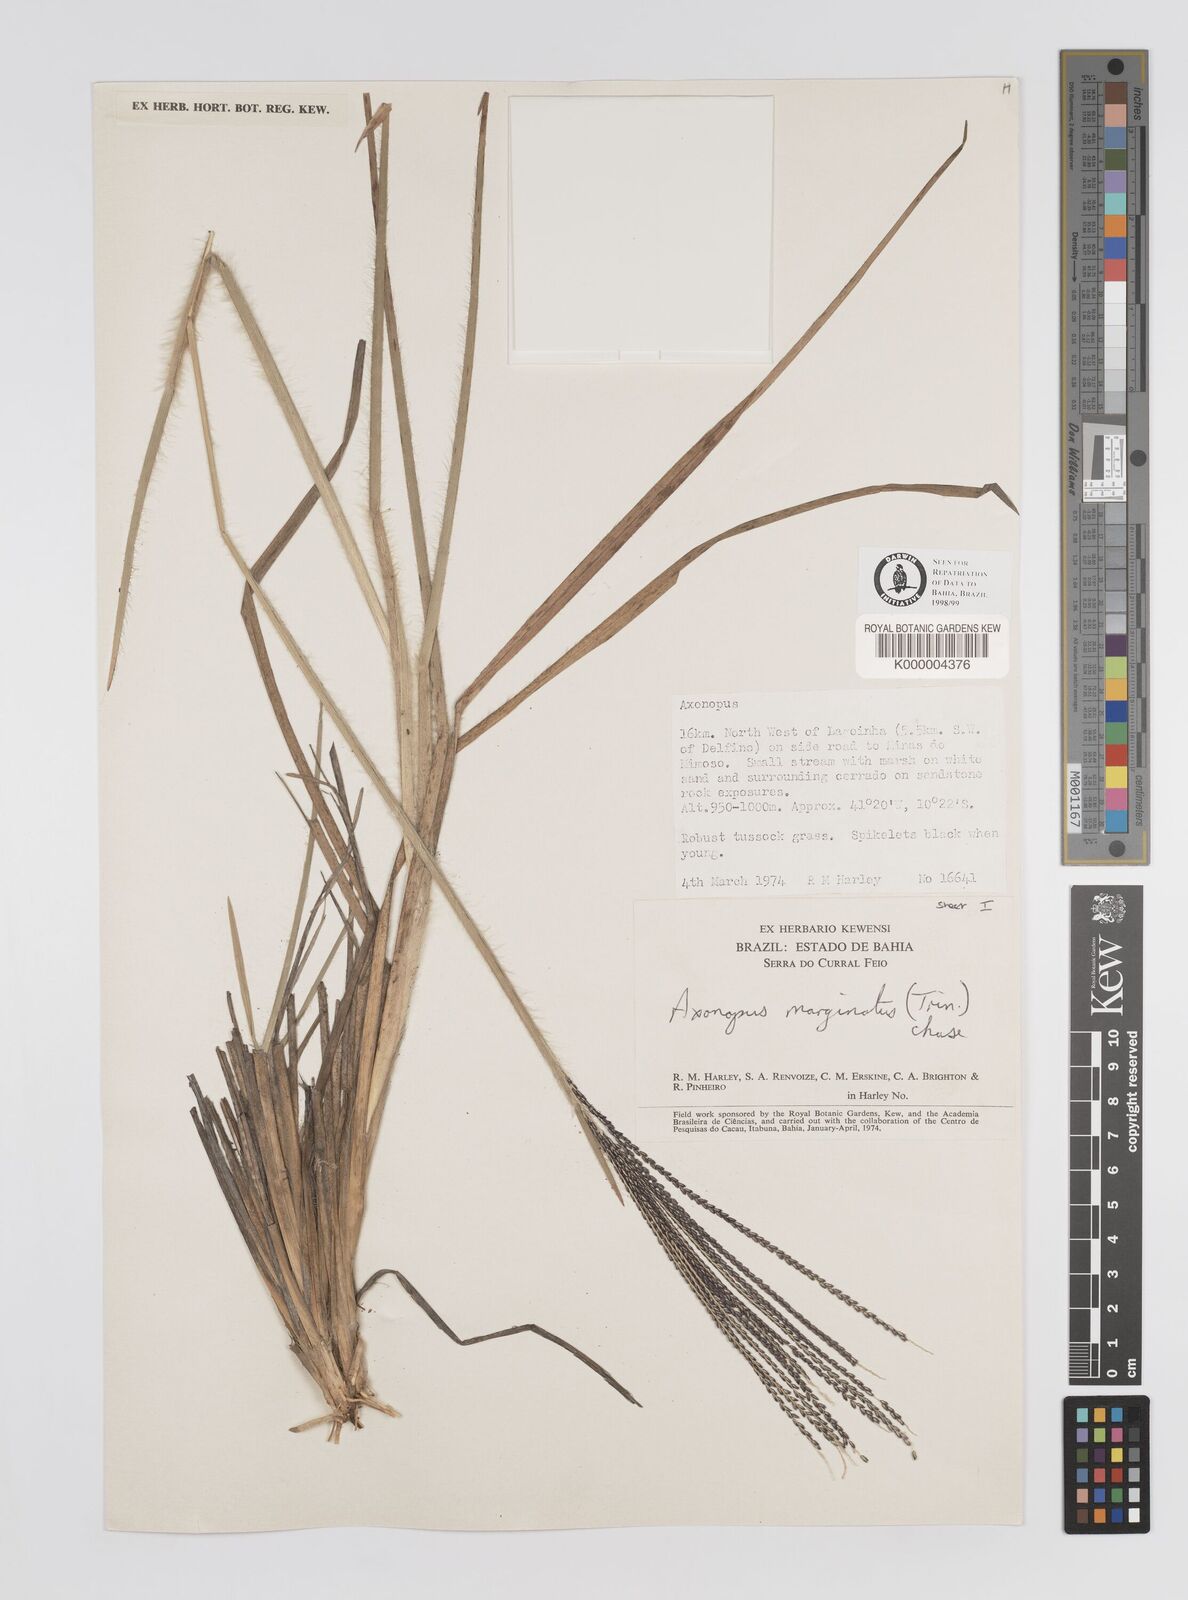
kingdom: Plantae
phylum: Tracheophyta
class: Liliopsida
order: Poales
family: Poaceae
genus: Axonopus
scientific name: Axonopus
